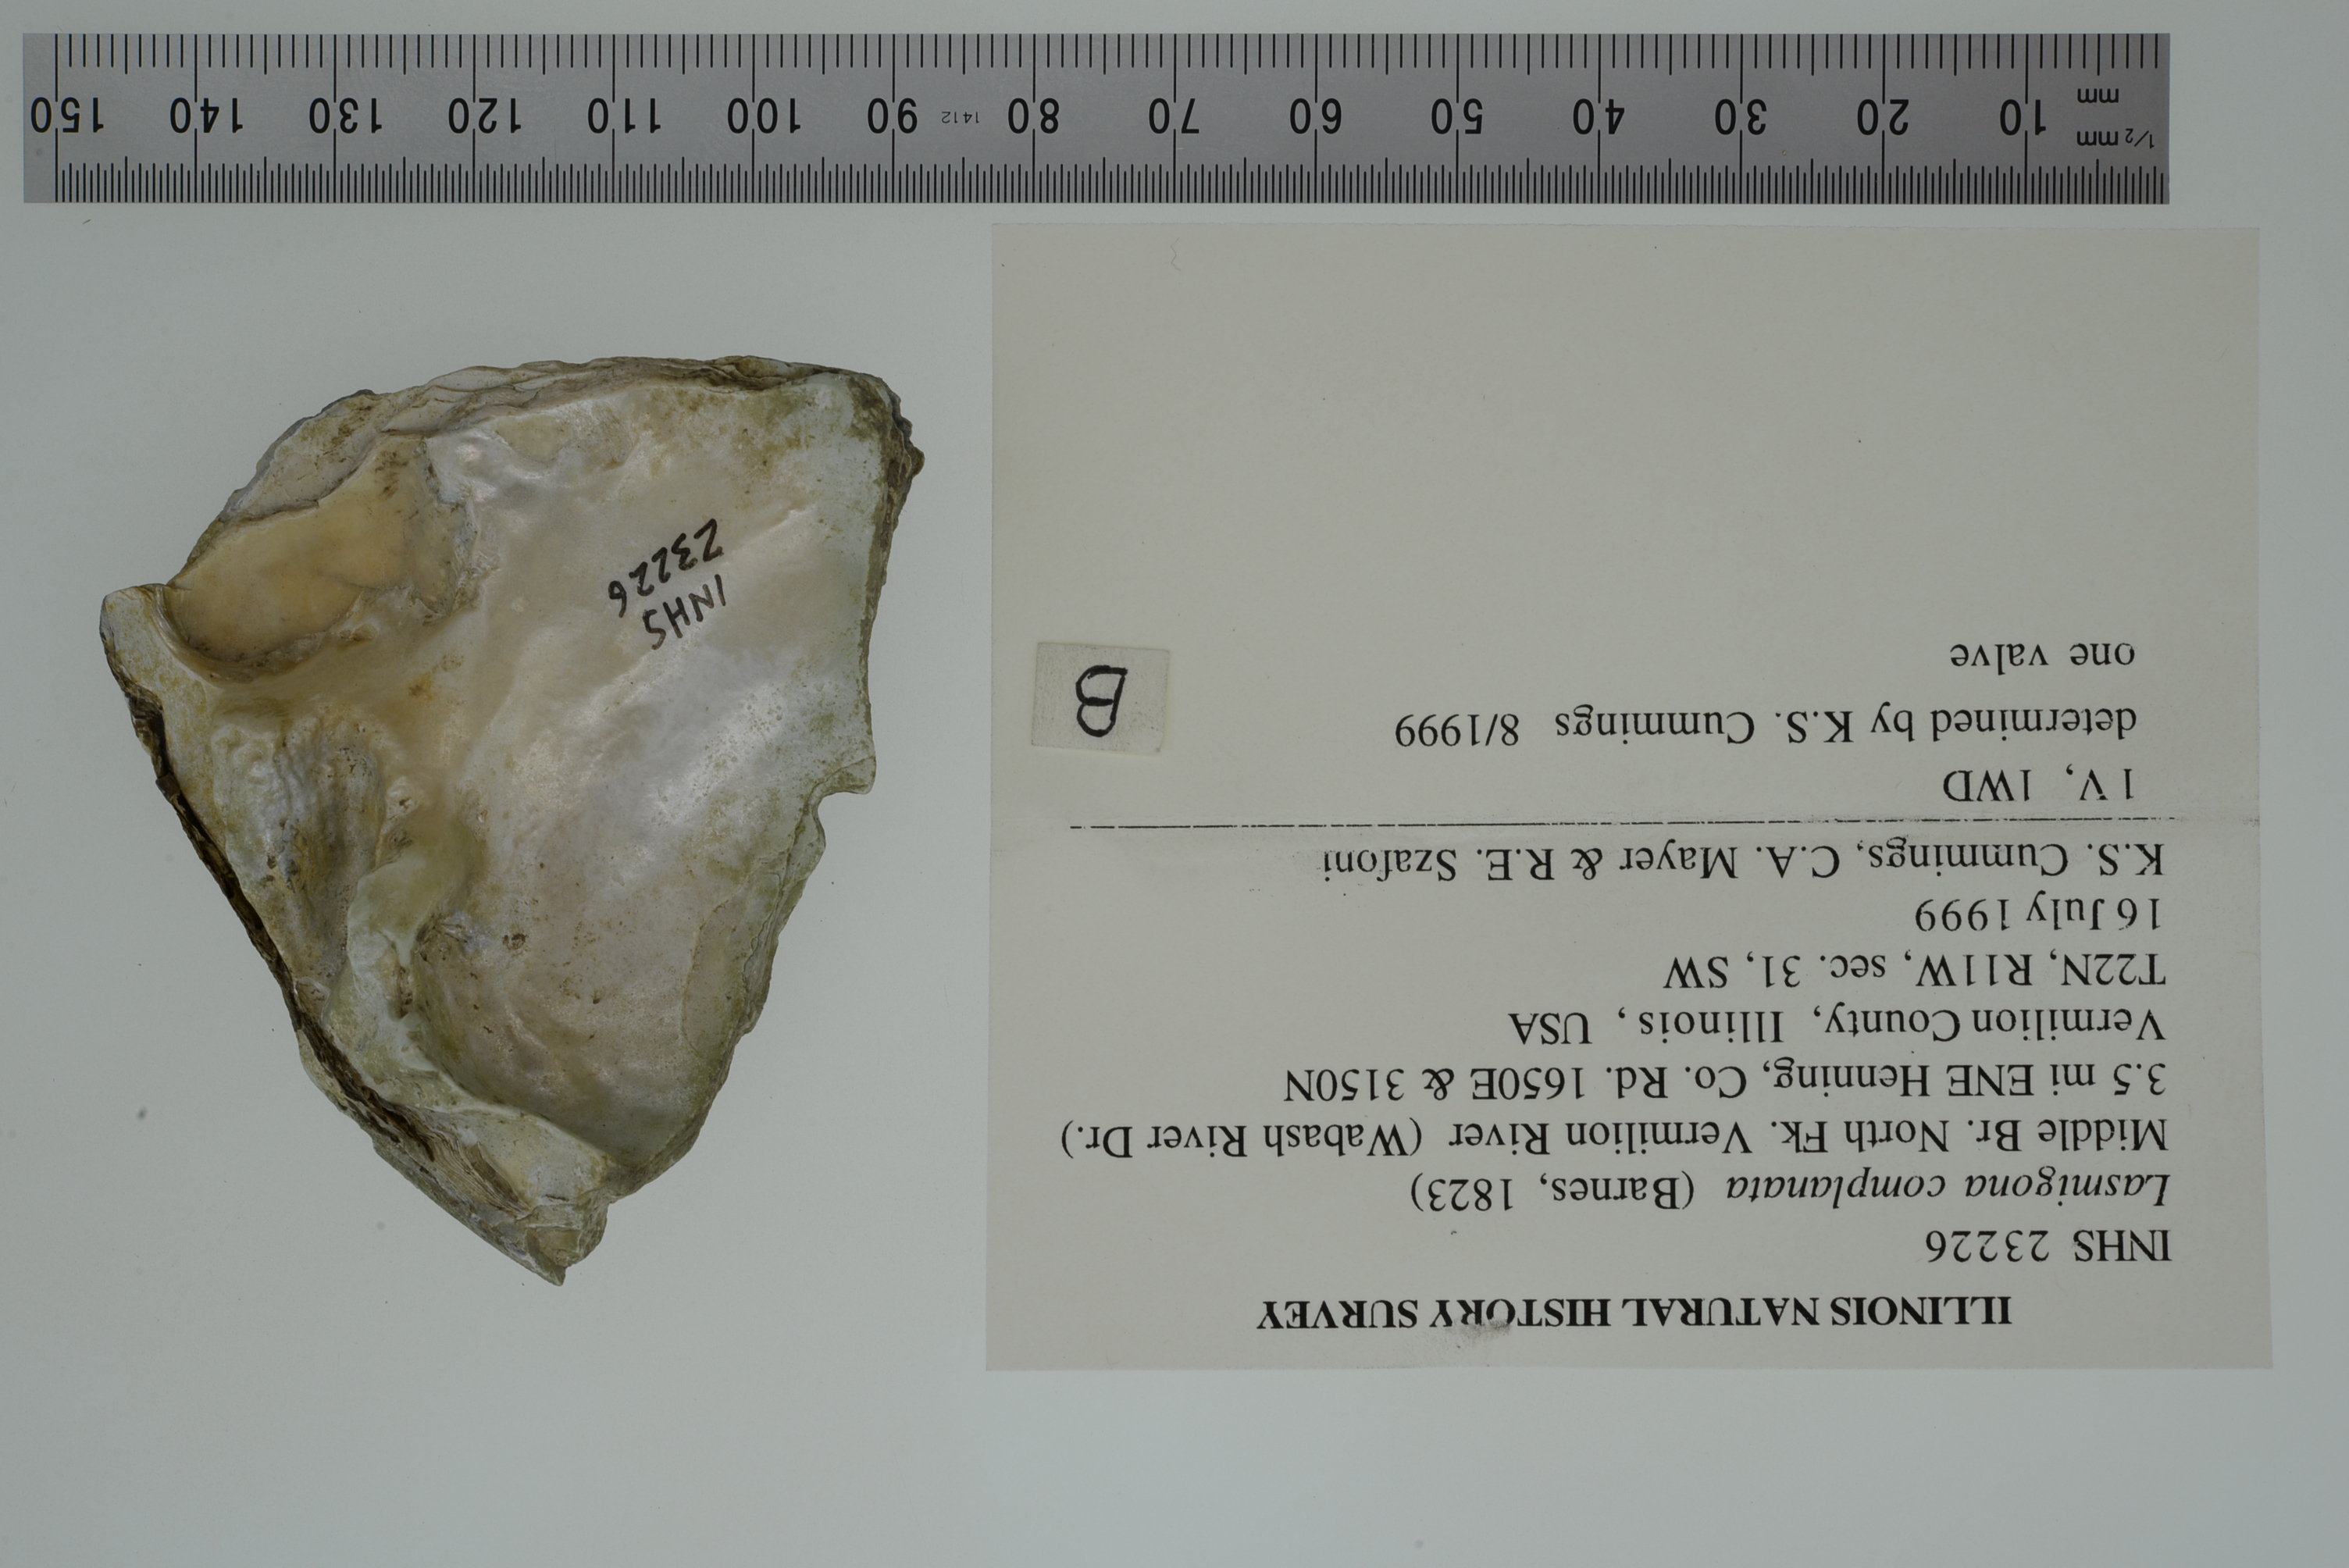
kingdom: Animalia
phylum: Mollusca
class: Bivalvia
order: Unionida
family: Unionidae
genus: Lasmigona
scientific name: Lasmigona complanata
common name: White heelsplitter
